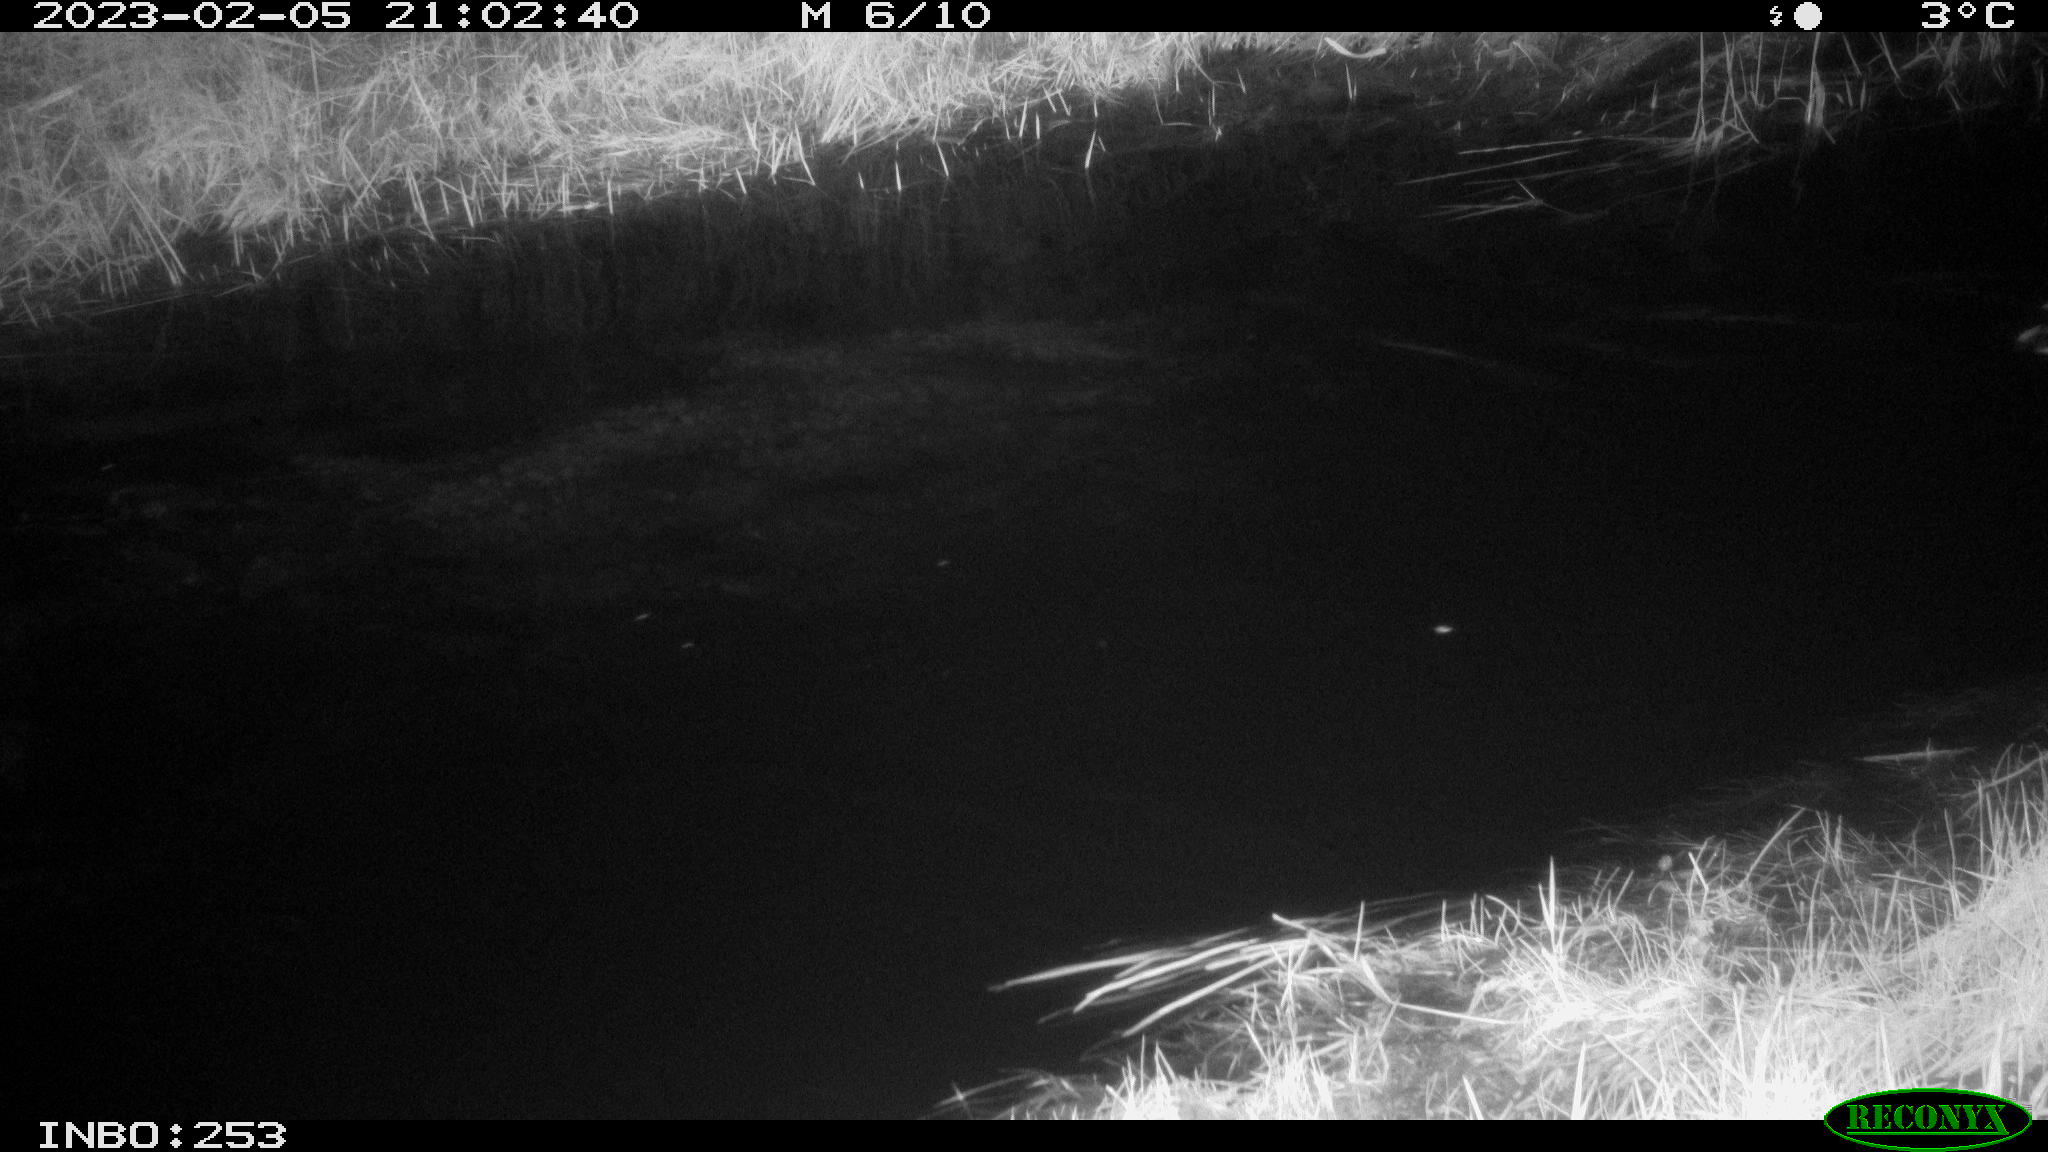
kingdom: Animalia
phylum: Chordata
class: Aves
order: Anseriformes
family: Anatidae
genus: Anas
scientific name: Anas
